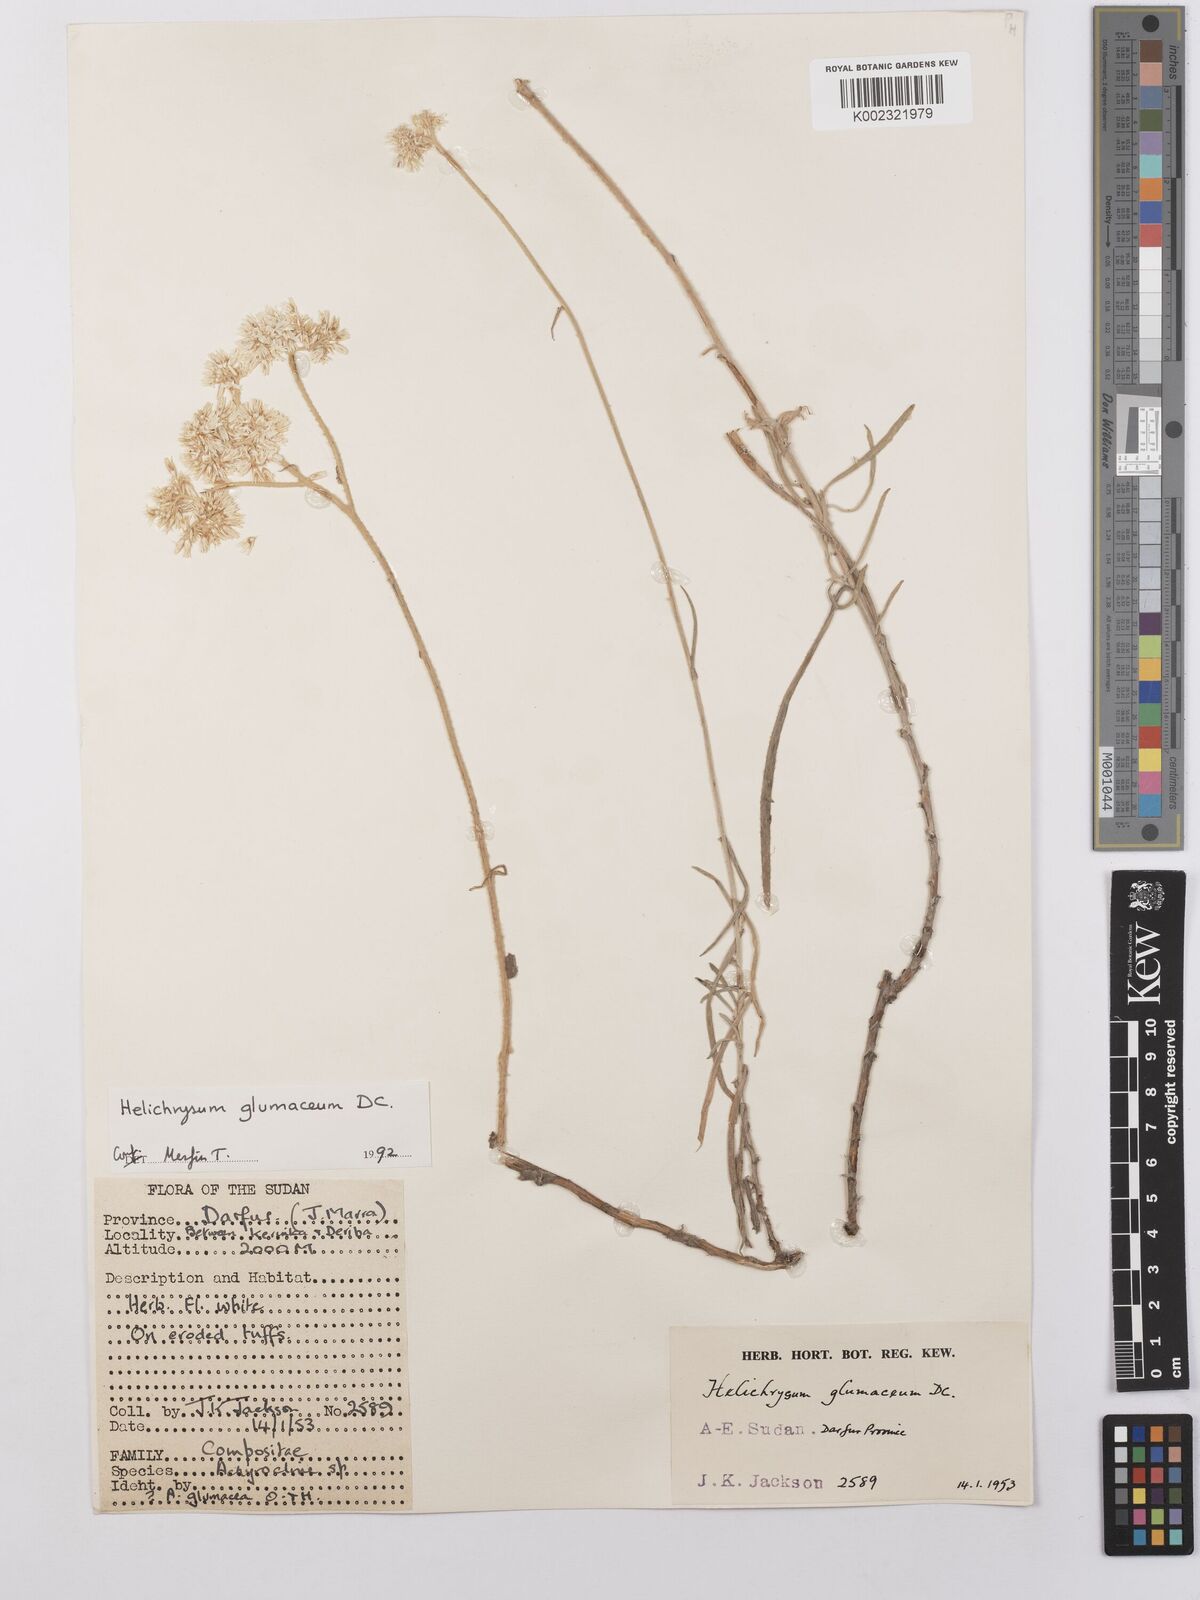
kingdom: Plantae
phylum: Tracheophyta
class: Magnoliopsida
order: Asterales
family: Asteraceae
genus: Helichrysum
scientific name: Helichrysum glumaceum
